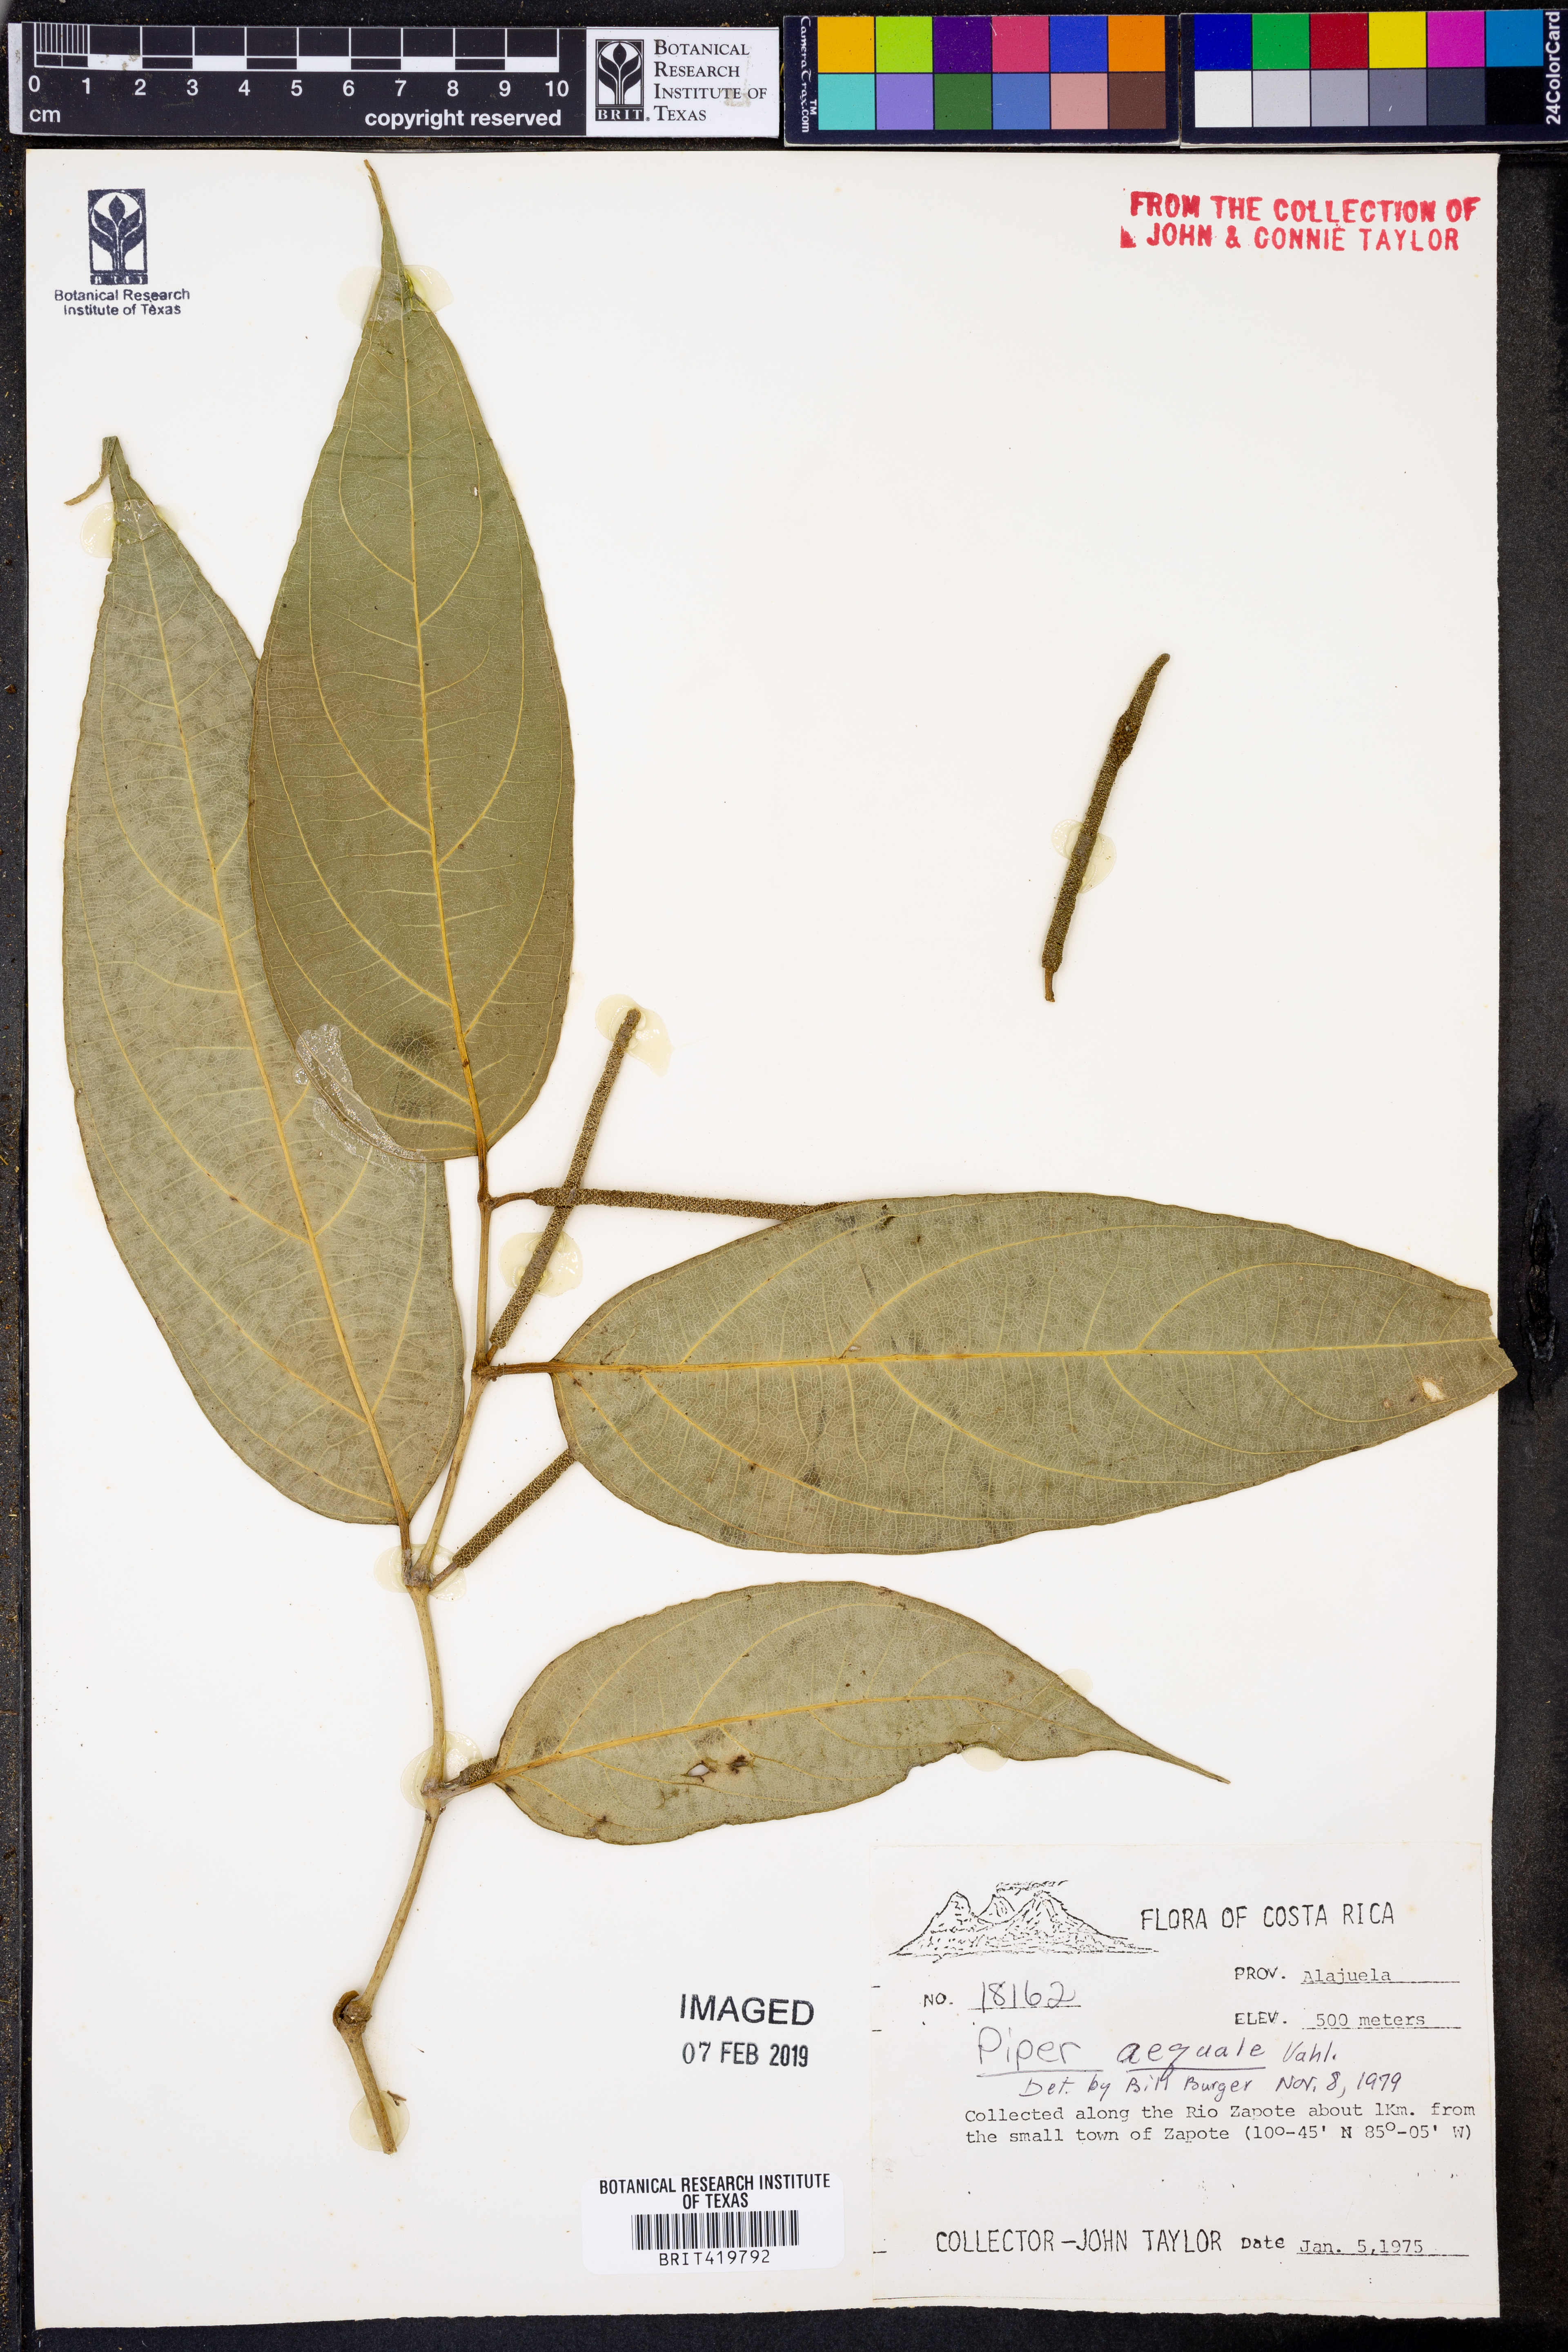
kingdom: Plantae
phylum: Tracheophyta
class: Magnoliopsida
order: Piperales
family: Piperaceae
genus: Piper
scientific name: Piper aequale
